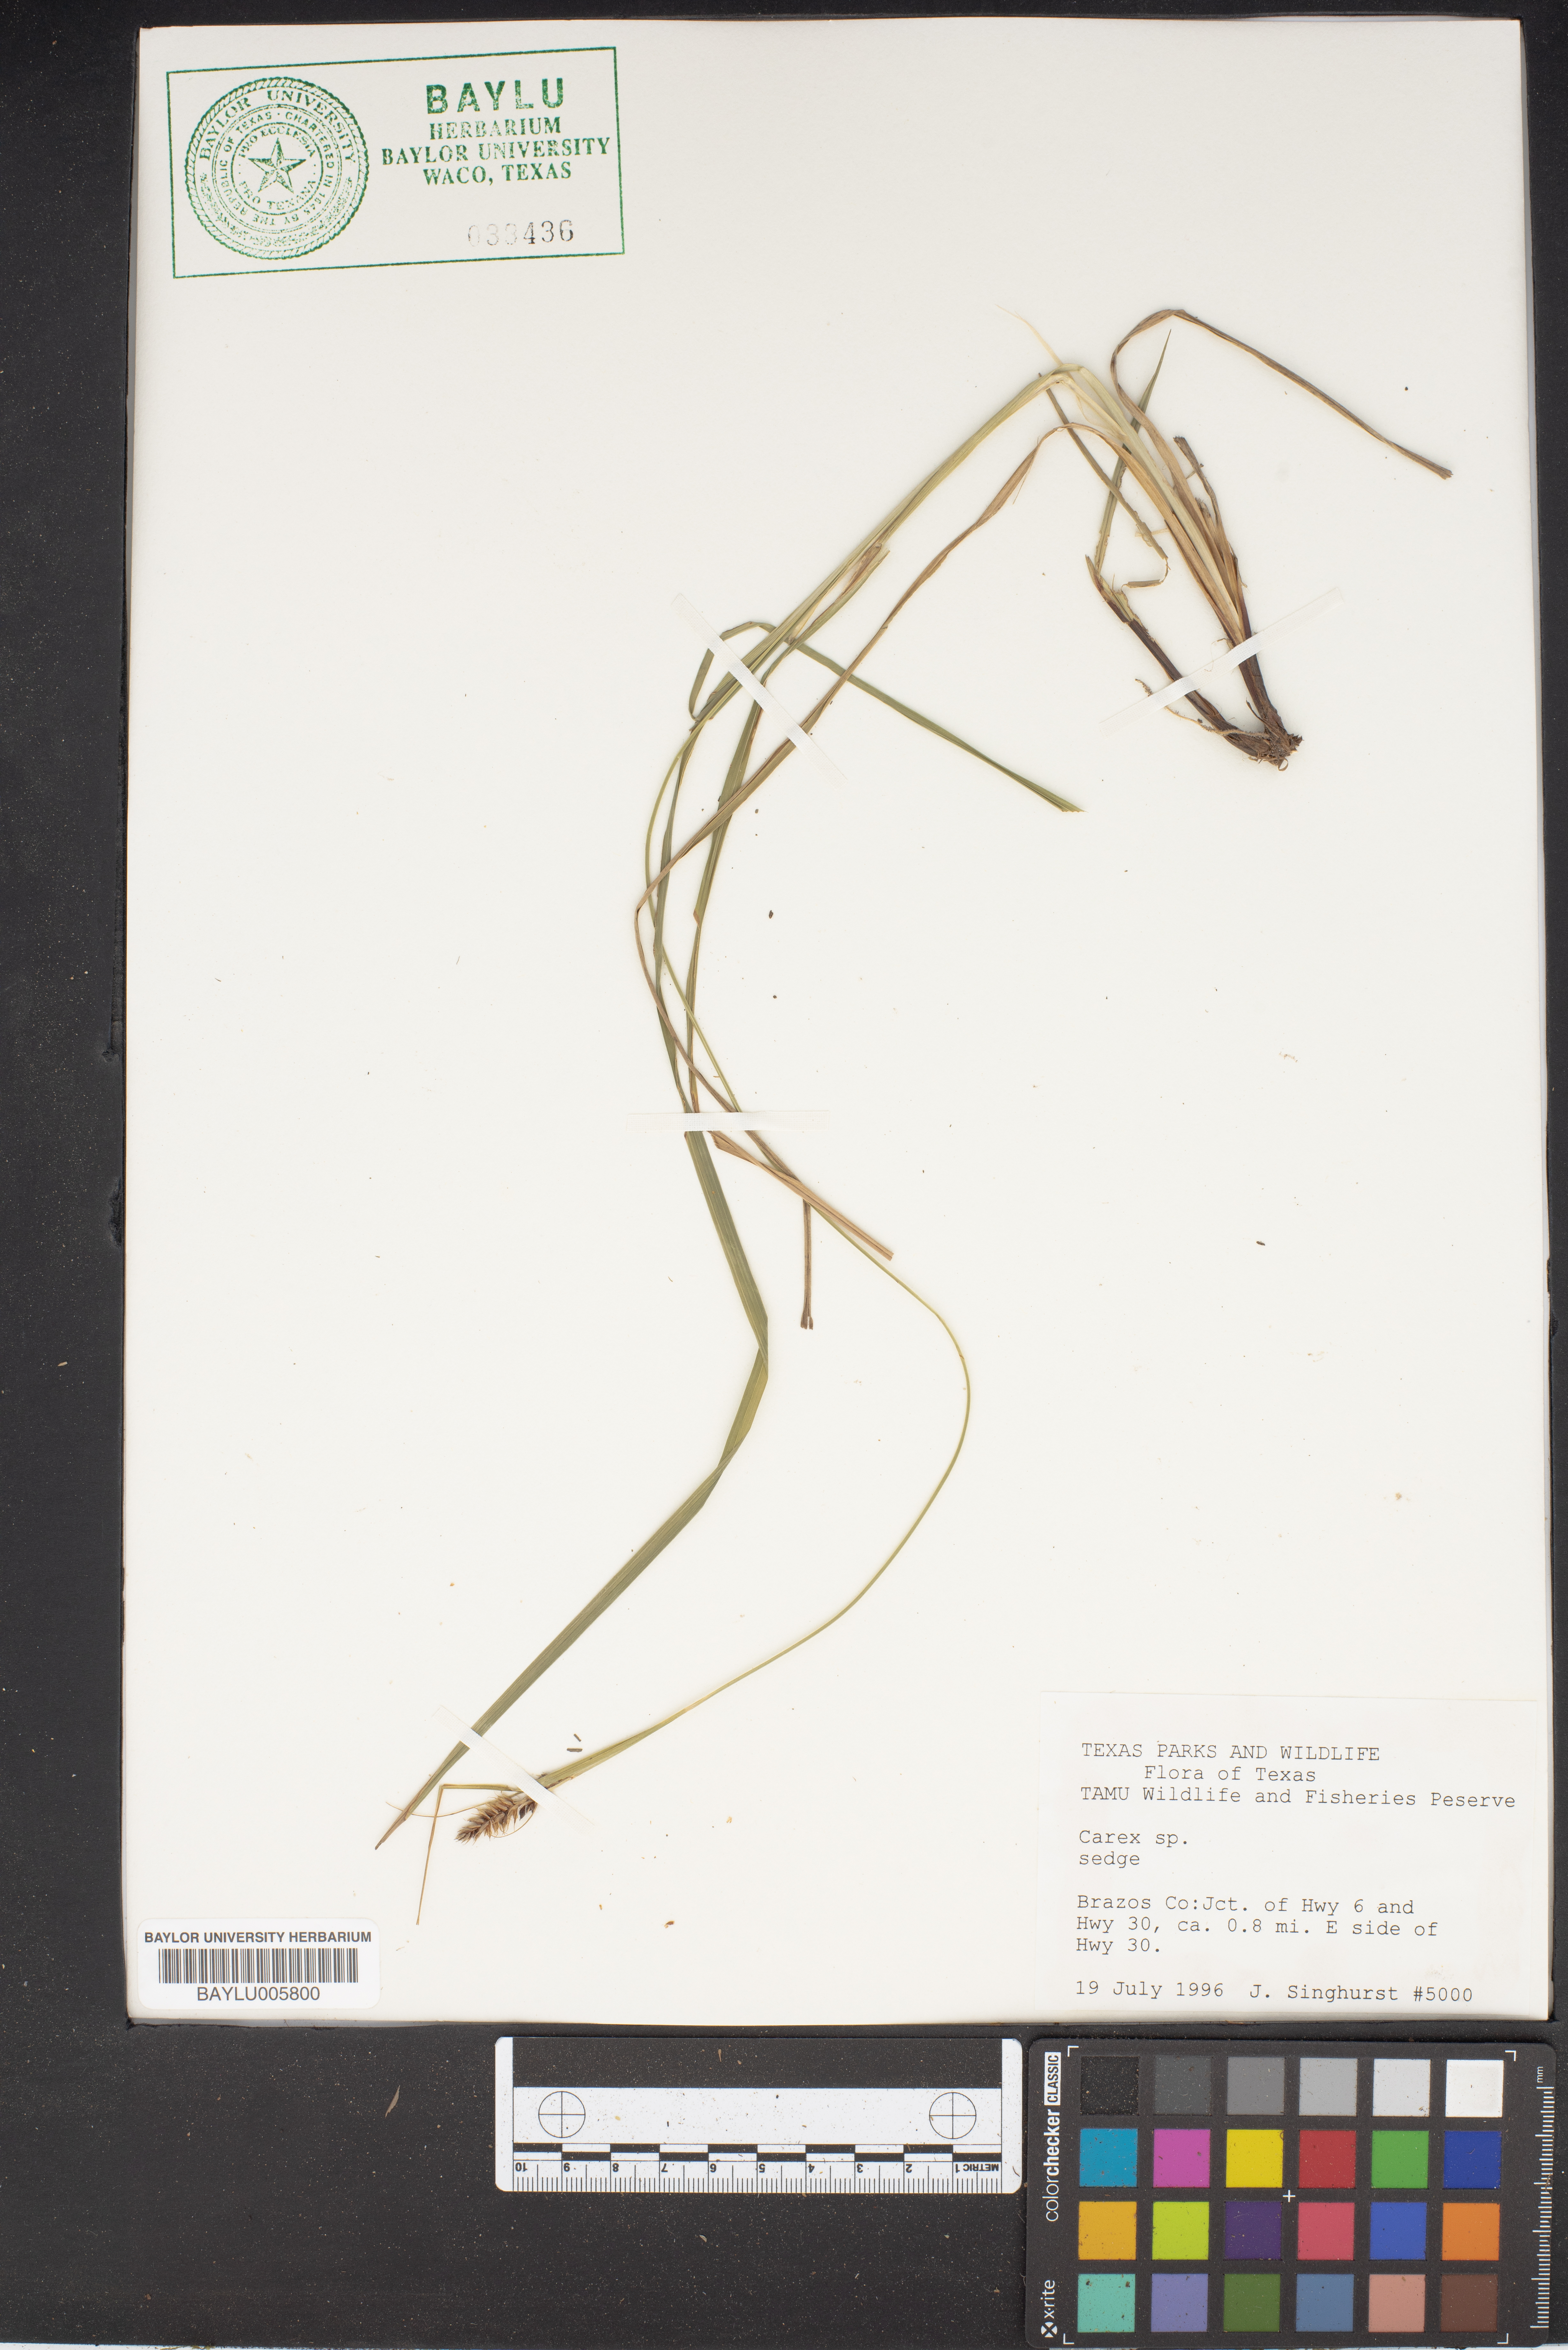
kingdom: Plantae
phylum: Tracheophyta
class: Liliopsida
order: Poales
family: Cyperaceae
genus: Carex
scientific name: Carex cherokeensis
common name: Cherokee sedge
